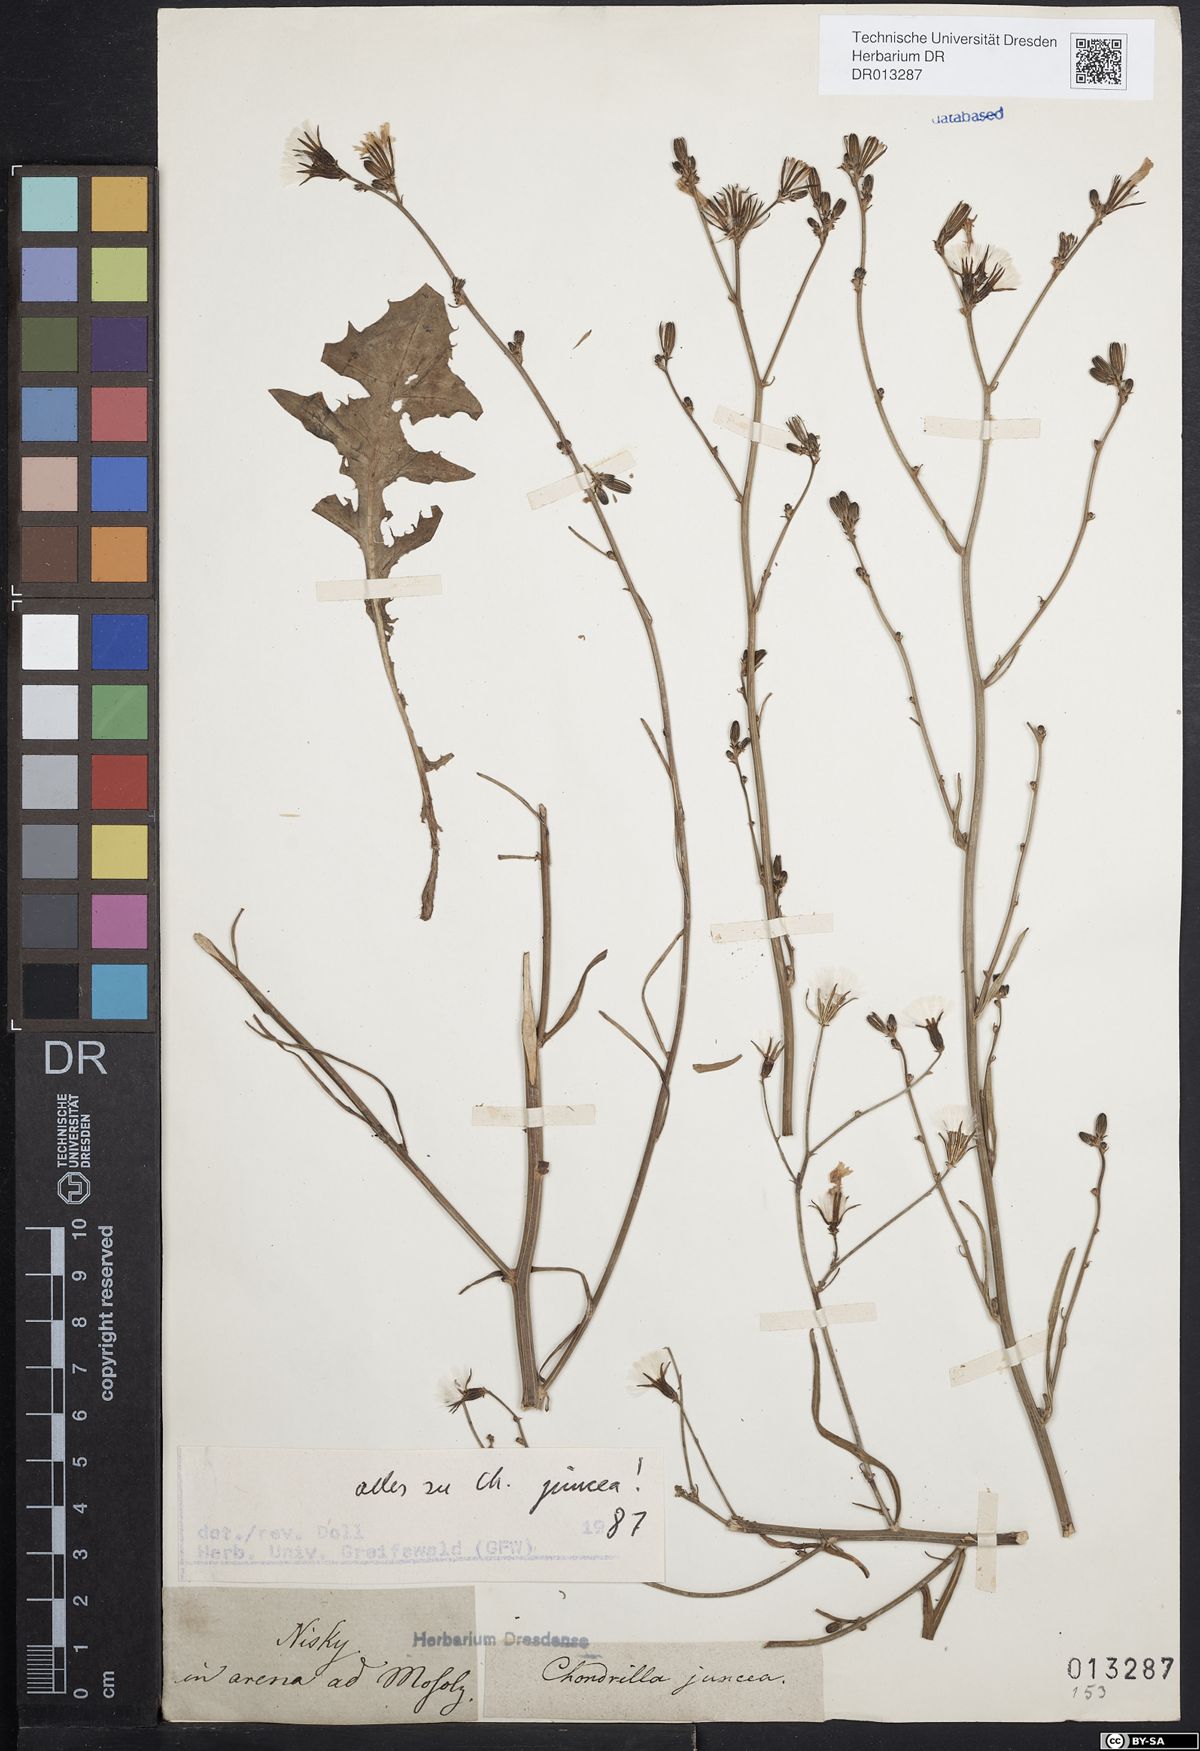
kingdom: Plantae
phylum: Tracheophyta
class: Magnoliopsida
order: Asterales
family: Asteraceae
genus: Chondrilla
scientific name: Chondrilla juncea
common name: Skeleton weed
